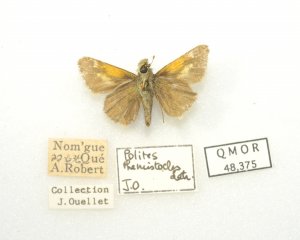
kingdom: Animalia
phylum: Arthropoda
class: Insecta
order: Lepidoptera
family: Hesperiidae
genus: Polites
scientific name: Polites themistocles
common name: Tawny-edged Skipper
